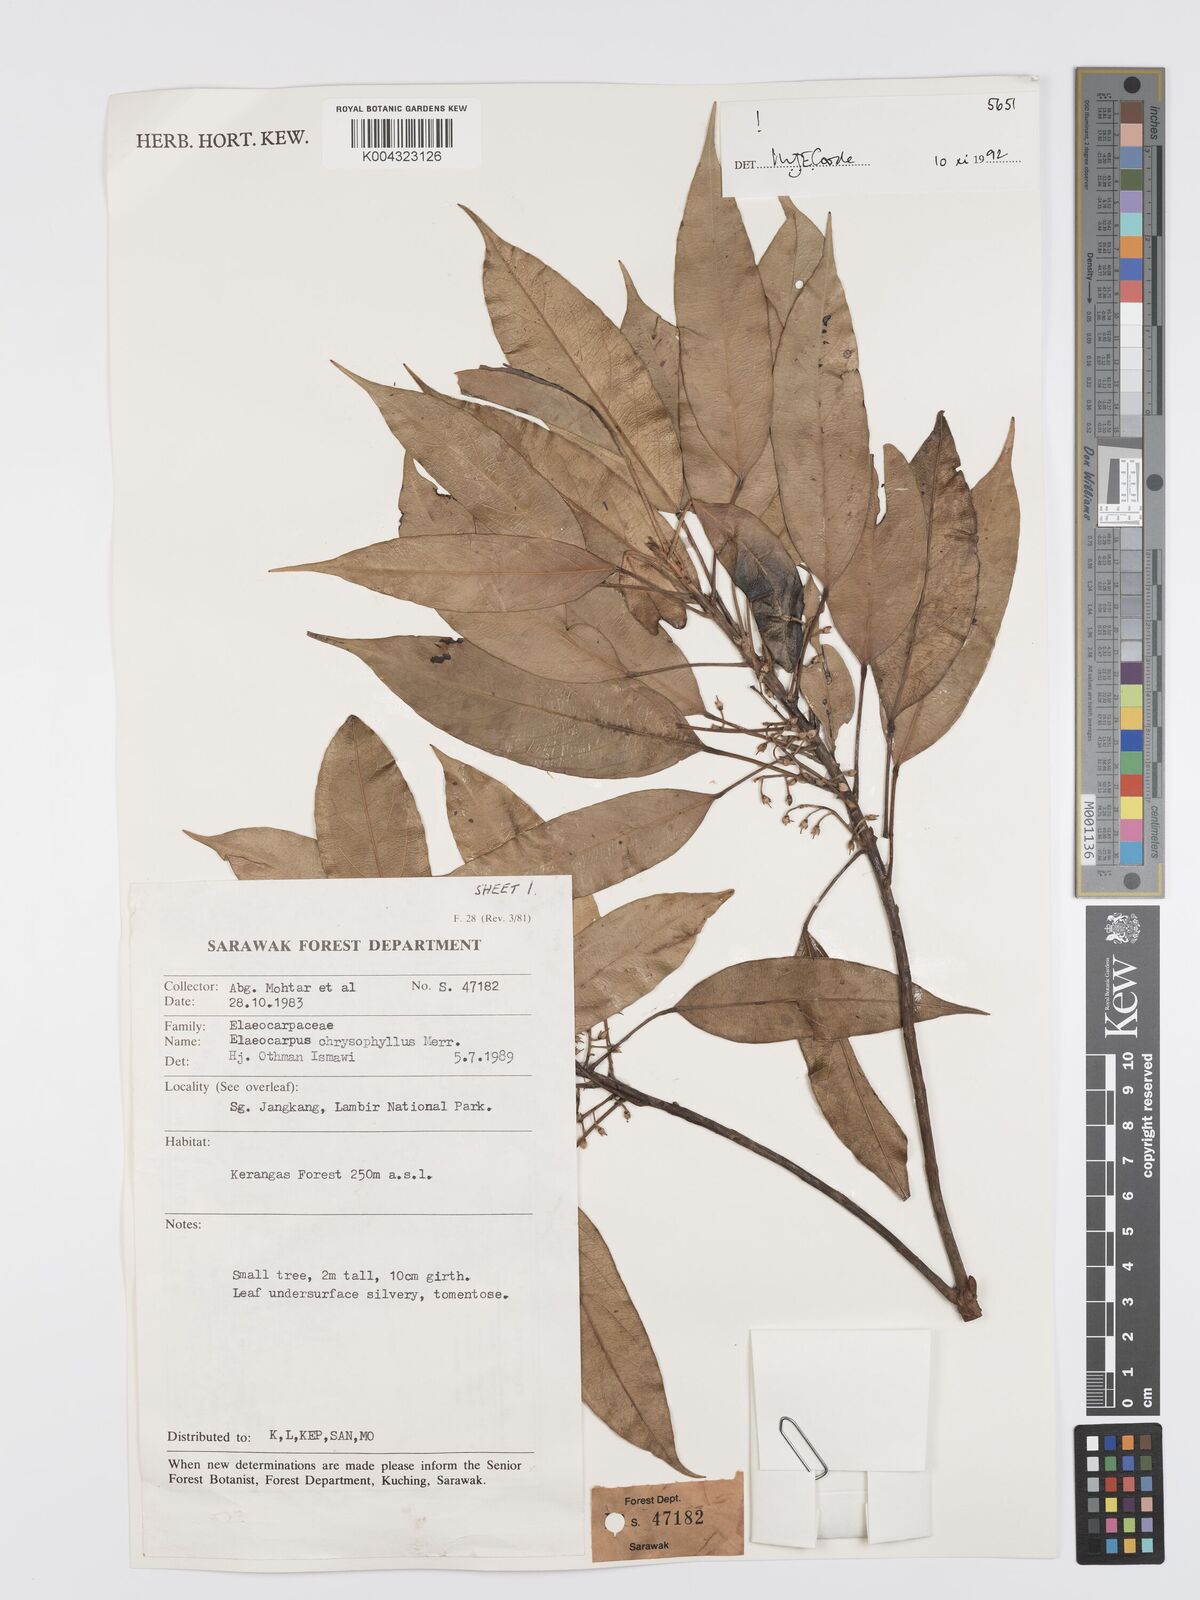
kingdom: Plantae
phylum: Tracheophyta
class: Magnoliopsida
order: Oxalidales
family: Elaeocarpaceae
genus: Elaeocarpus
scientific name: Elaeocarpus chrysophyllus
